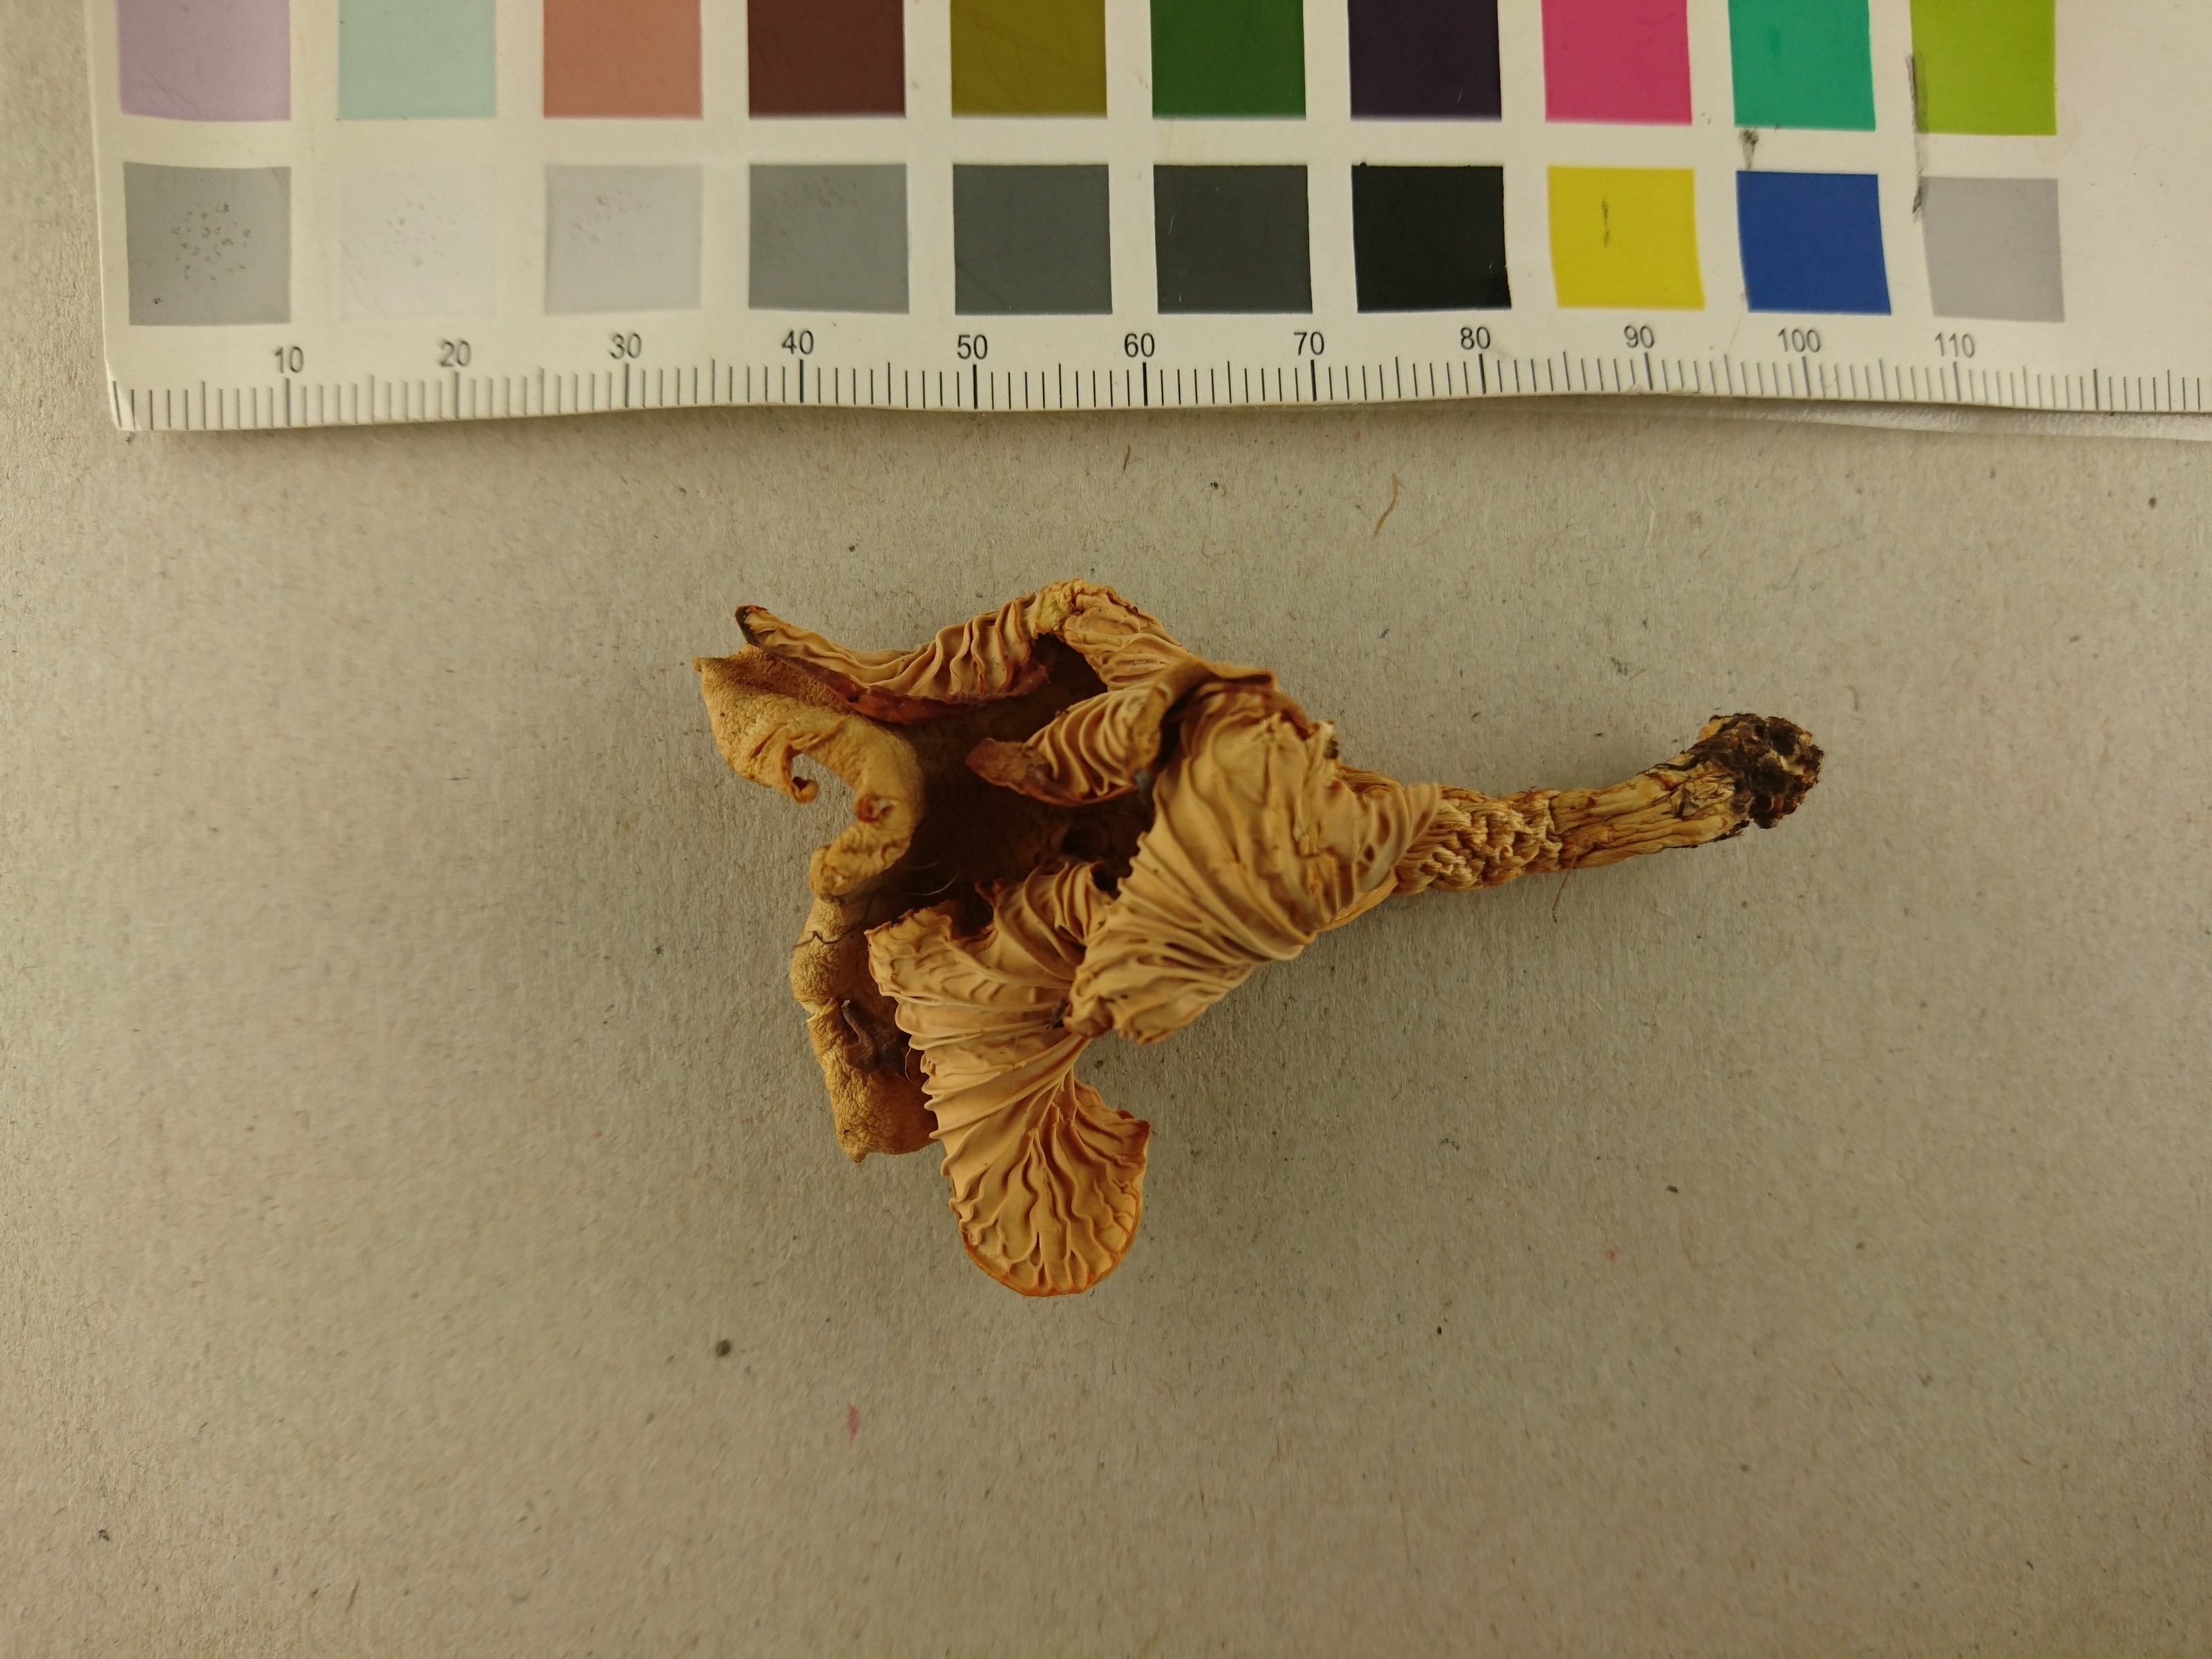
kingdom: Fungi
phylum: Basidiomycota
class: Agaricomycetes
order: Cantharellales
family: Hydnaceae
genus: Cantharellus
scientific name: Cantharellus pallens
